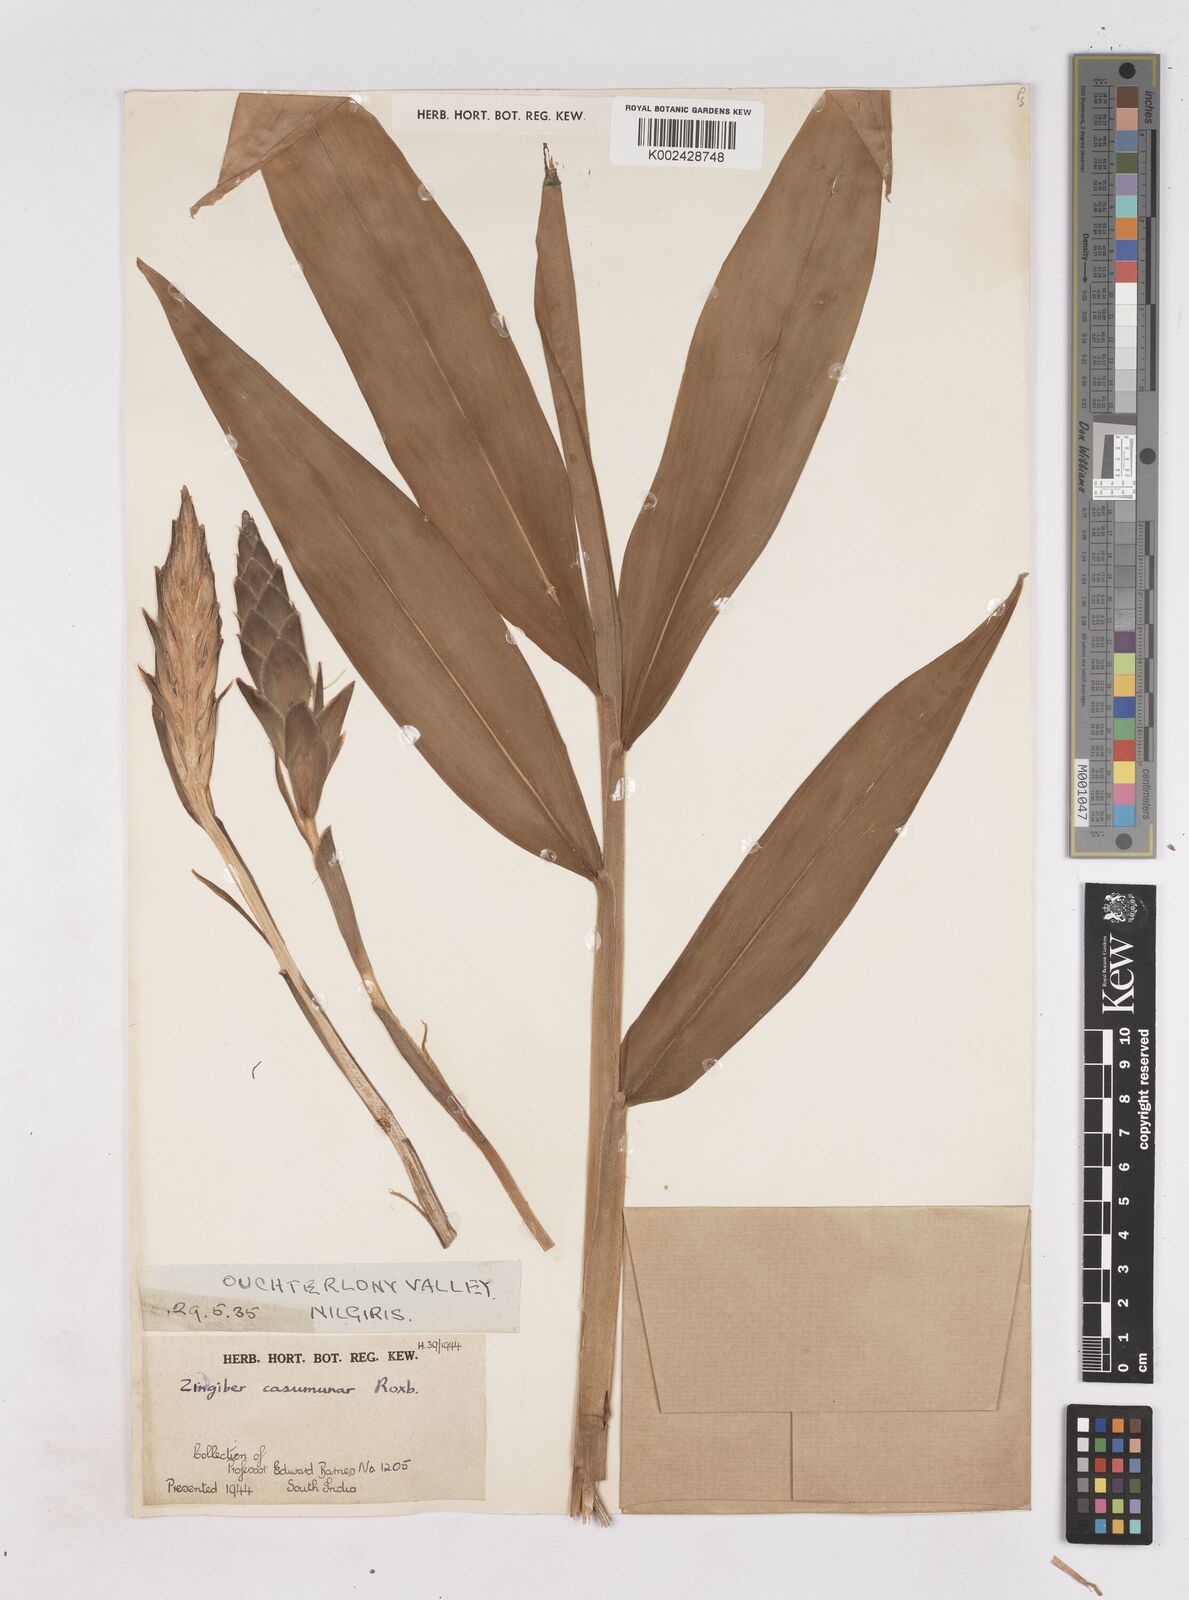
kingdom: Plantae
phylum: Tracheophyta
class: Liliopsida
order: Zingiberales
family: Zingiberaceae
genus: Zingiber
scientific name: Zingiber montanum
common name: Bengal ginger
